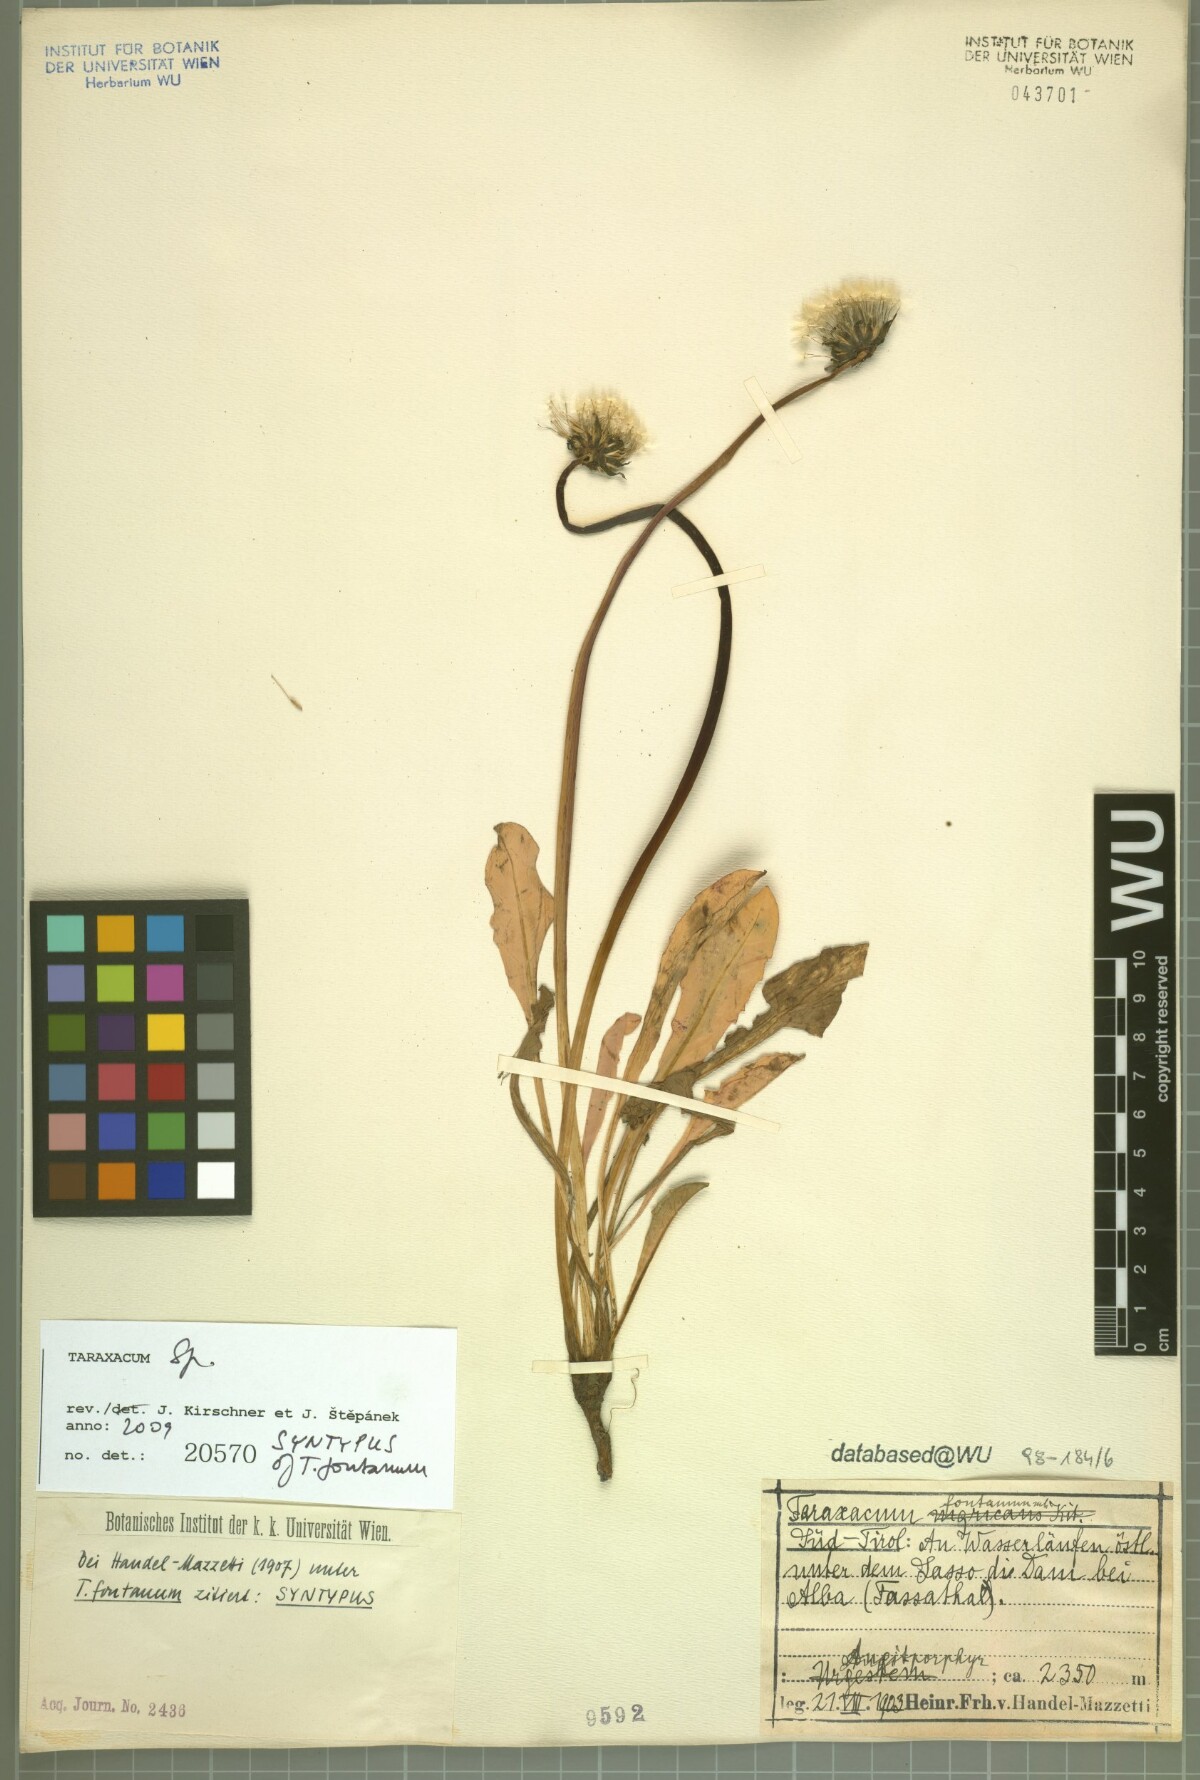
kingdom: Plantae
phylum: Tracheophyta
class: Magnoliopsida
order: Asterales
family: Asteraceae
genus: Taraxacum
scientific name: Taraxacum fontanum
